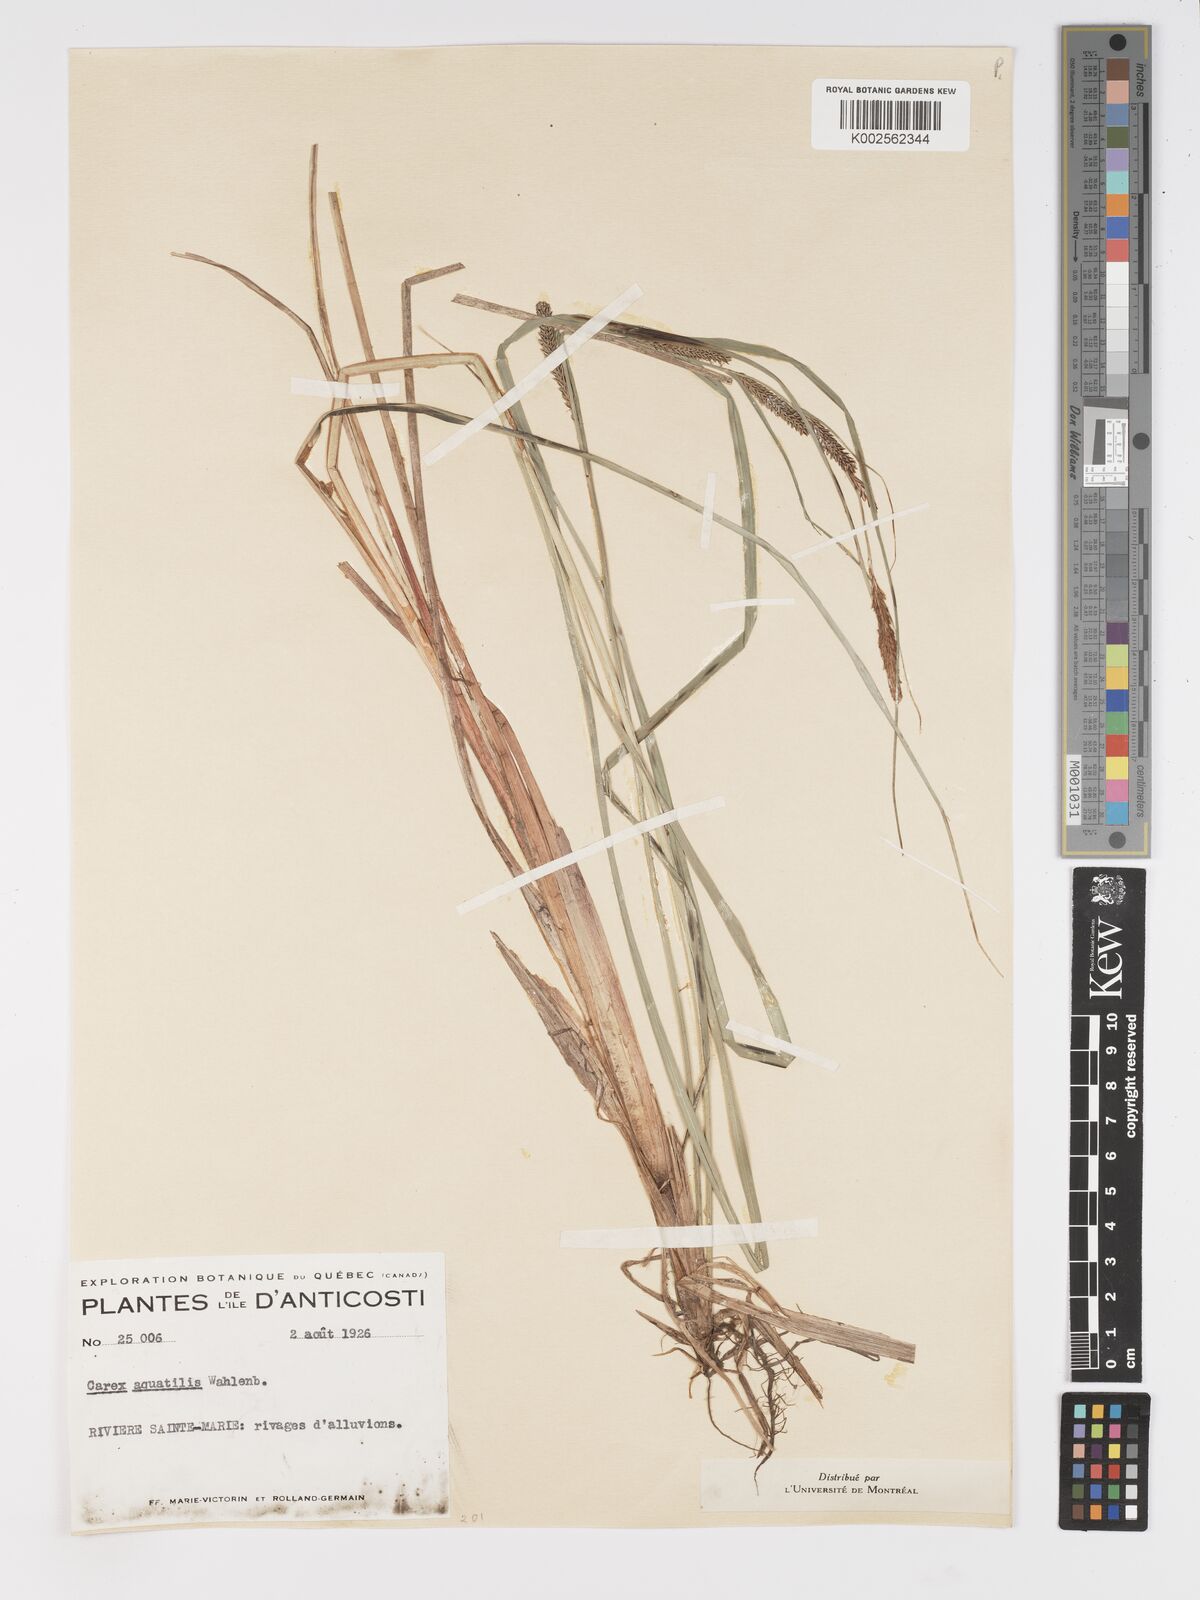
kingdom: Plantae
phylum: Tracheophyta
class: Liliopsida
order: Poales
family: Cyperaceae
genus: Carex
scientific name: Carex aquatilis
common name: Water sedge
